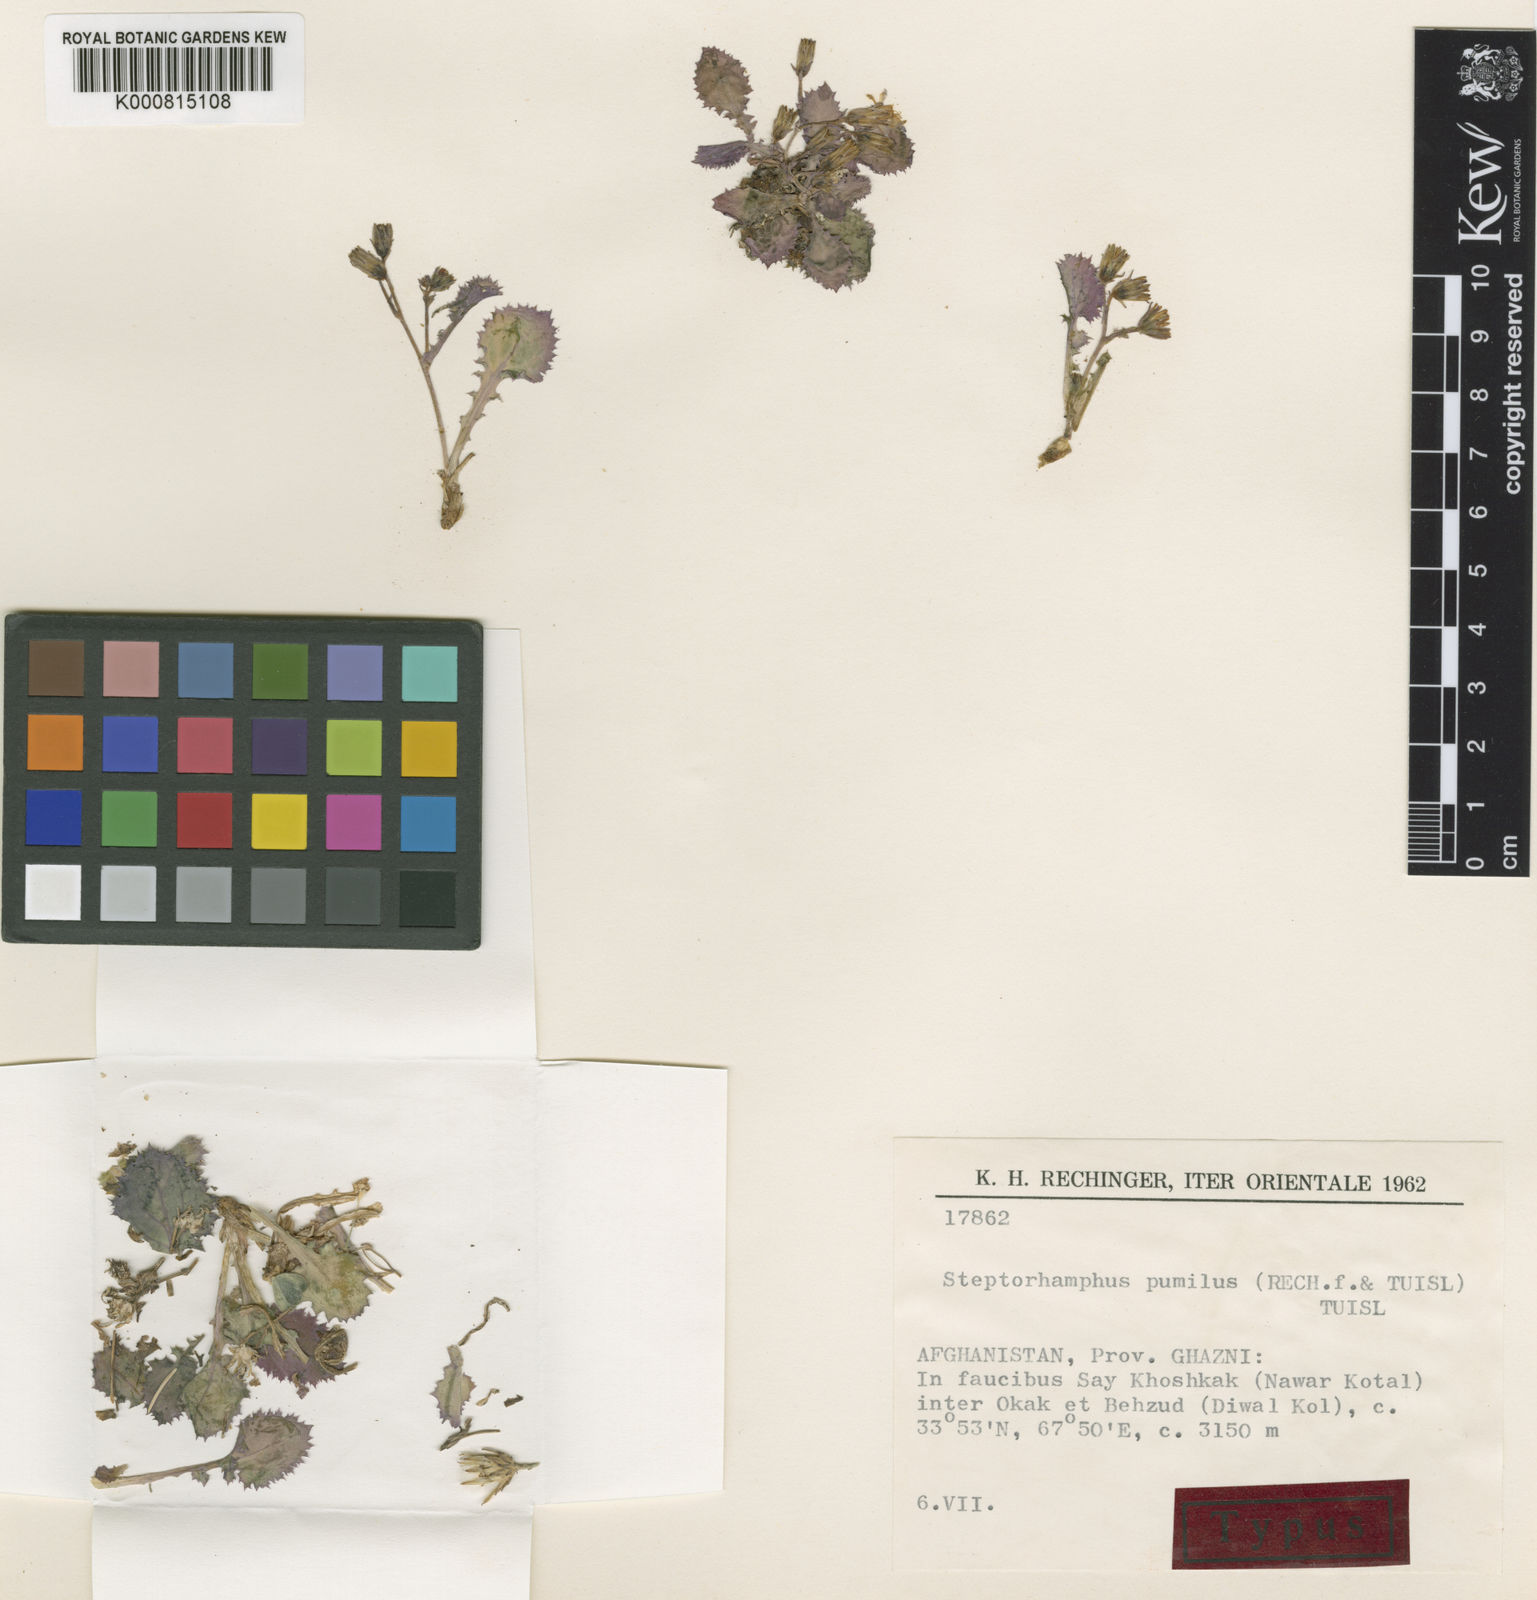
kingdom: Plantae
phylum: Tracheophyta
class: Magnoliopsida
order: Asterales
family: Asteraceae
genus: Lactuca
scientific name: Lactuca pumila
